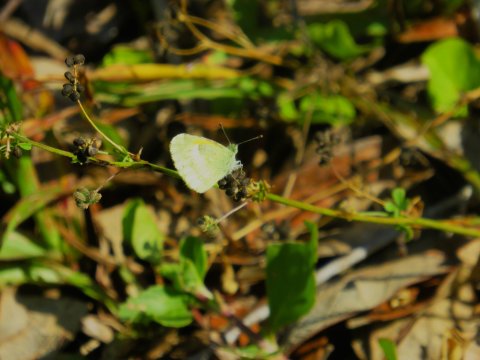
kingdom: Animalia
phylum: Arthropoda
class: Insecta
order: Lepidoptera
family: Pieridae
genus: Nathalis
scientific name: Nathalis iole
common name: Dainty Sulphur
